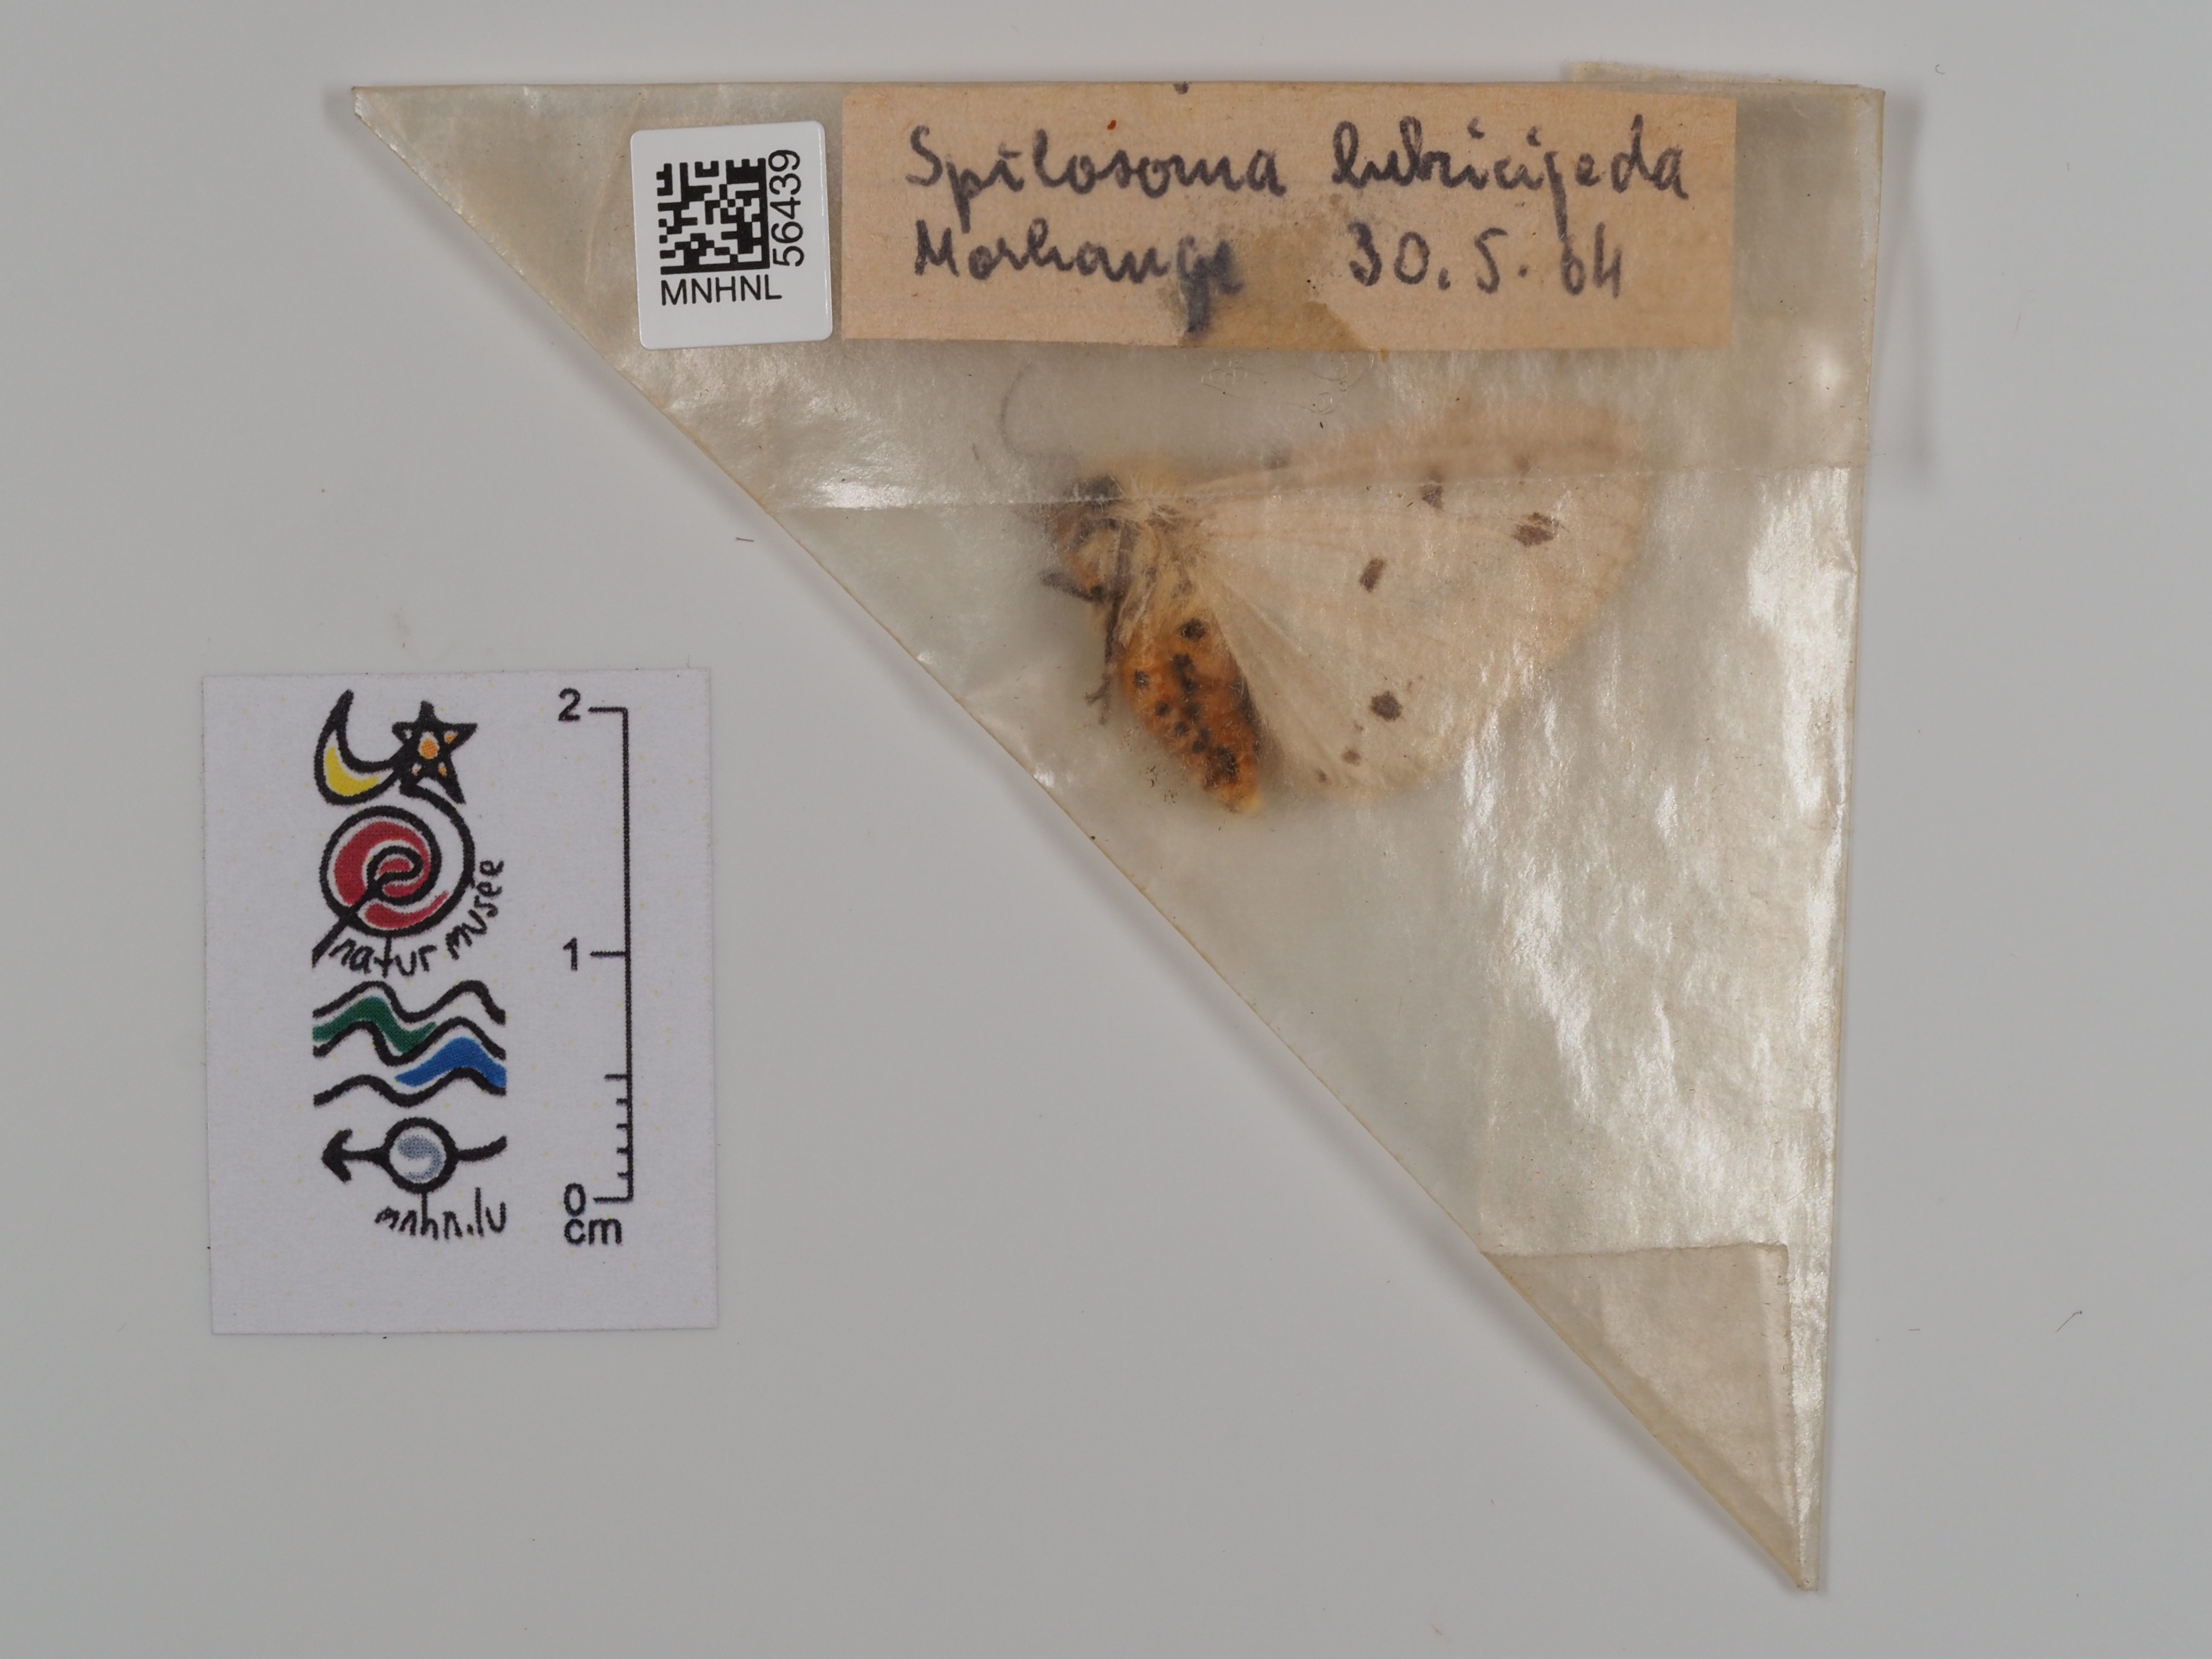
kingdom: Animalia
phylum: Arthropoda
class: Insecta
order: Lepidoptera
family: Erebidae
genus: Spilosoma
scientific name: Spilosoma lubricipeda
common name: White ermine
